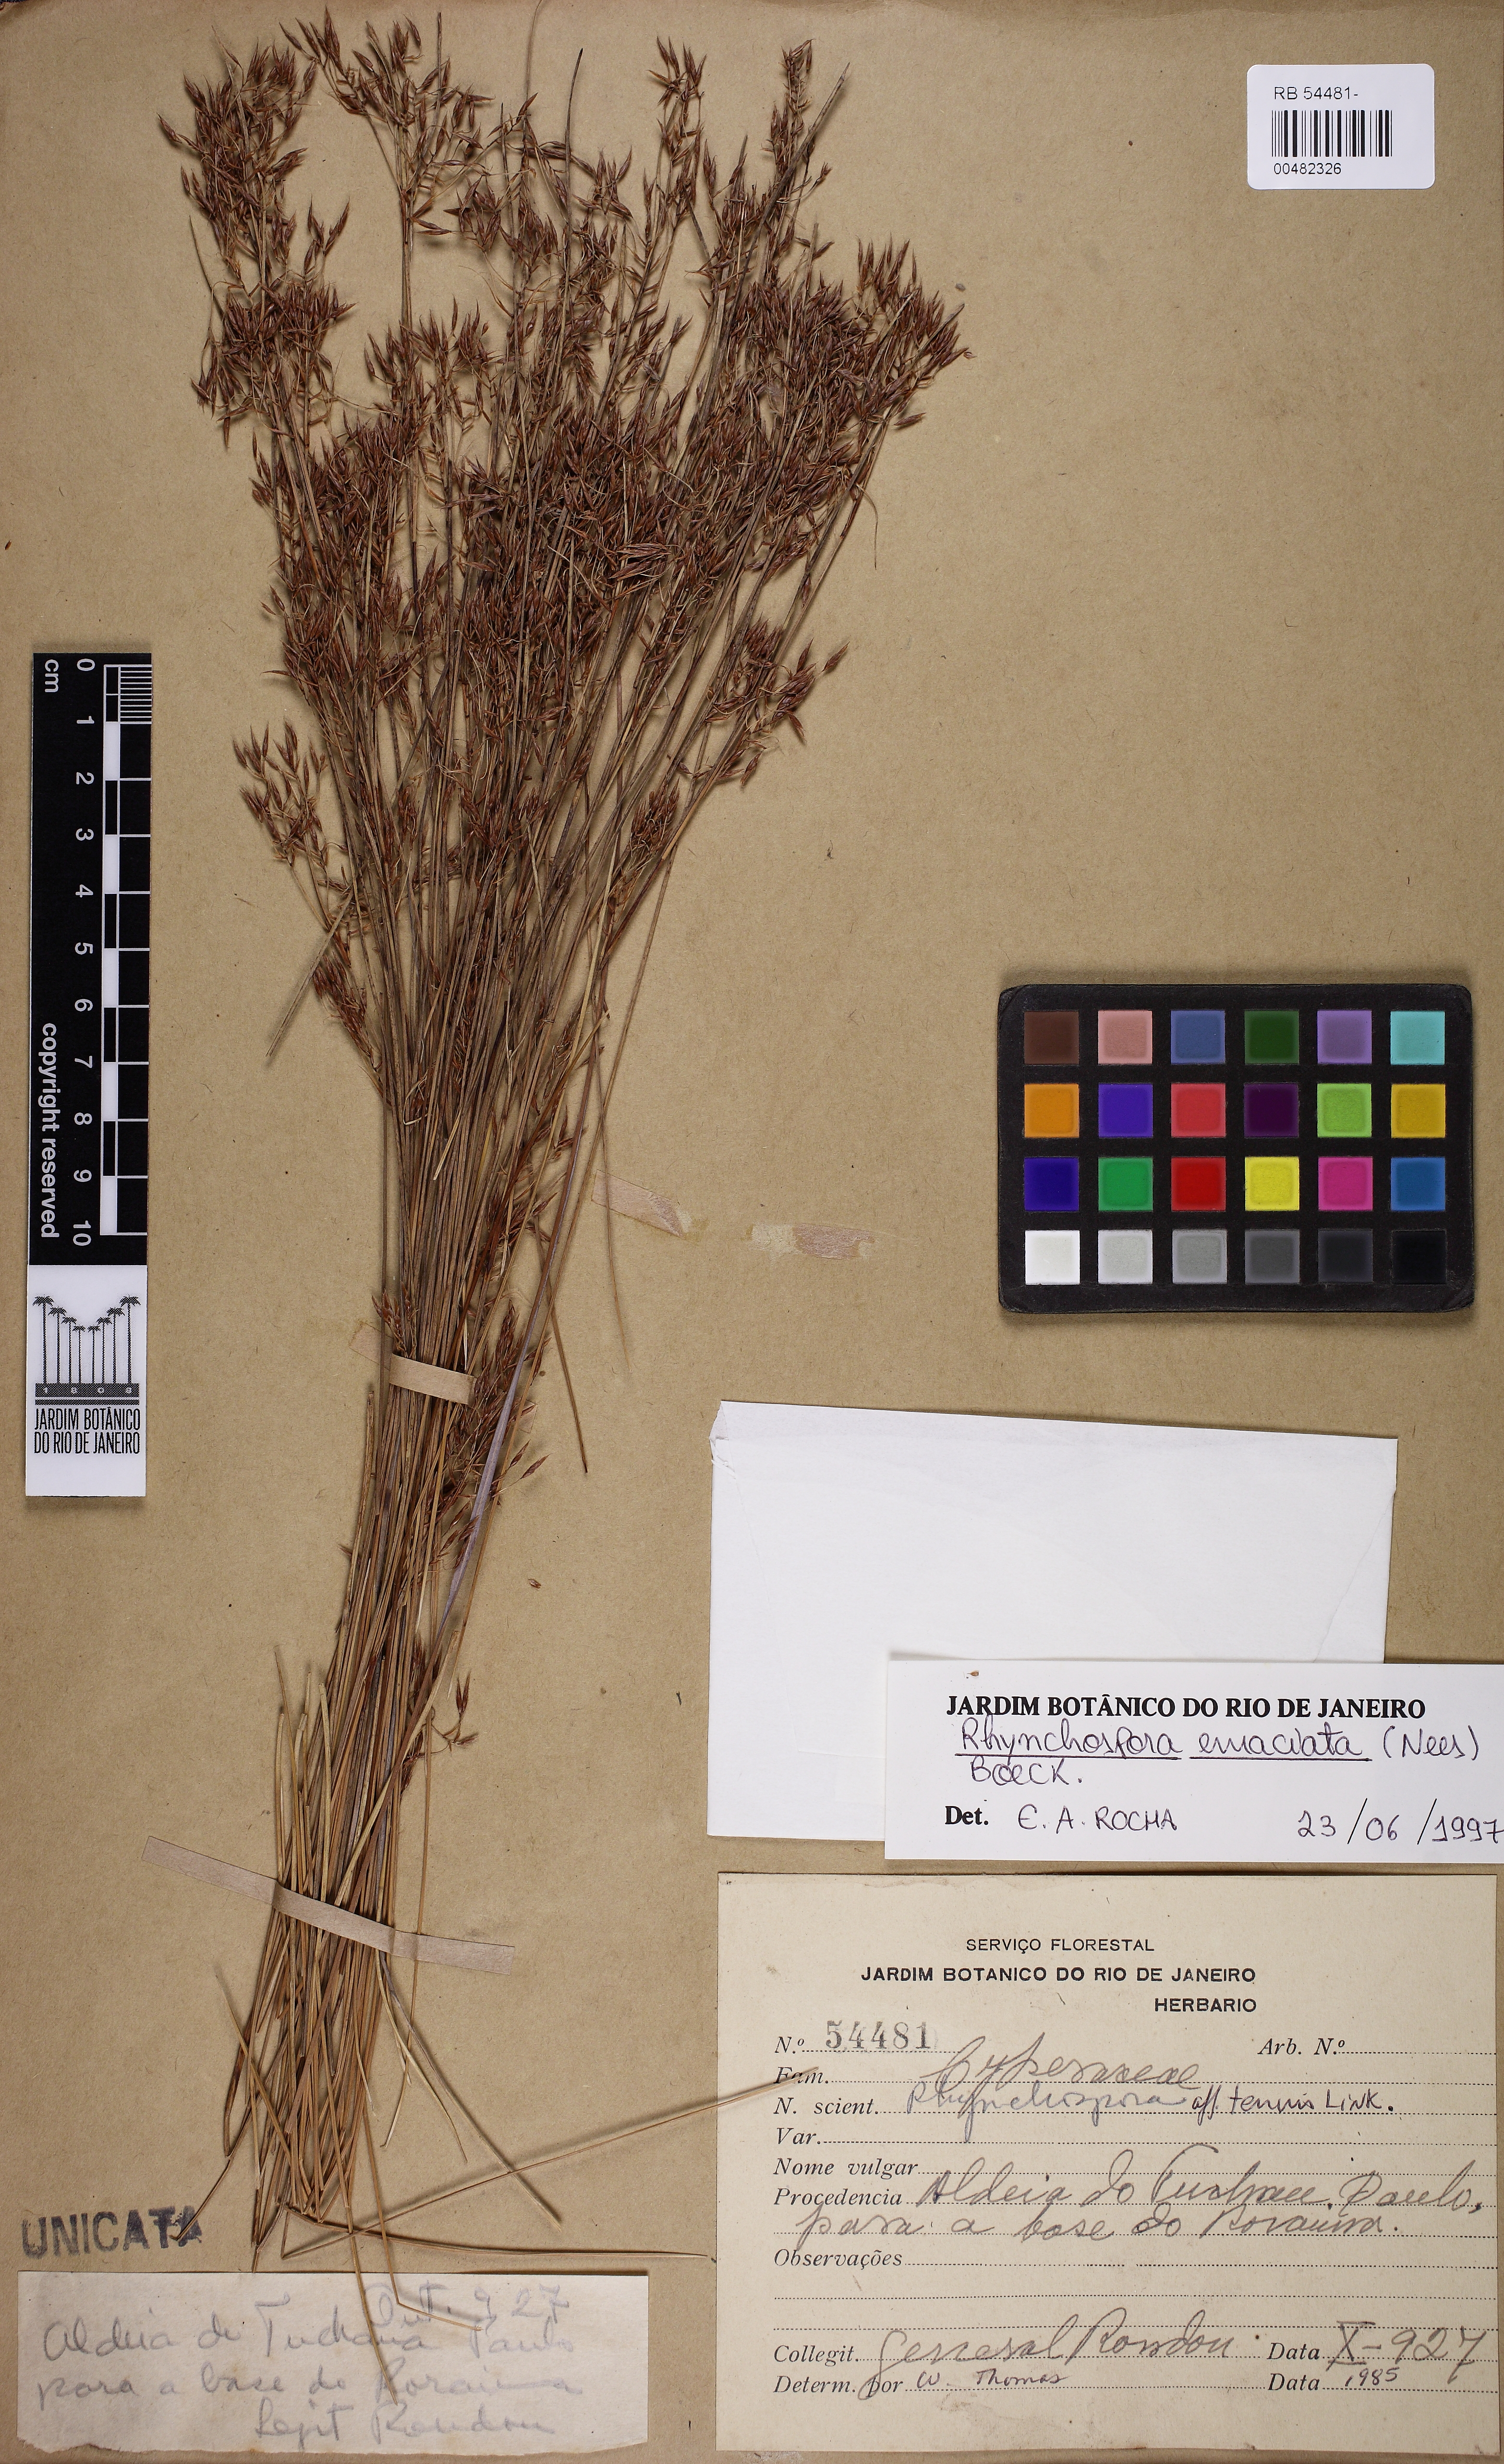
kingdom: Plantae
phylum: Tracheophyta
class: Liliopsida
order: Poales
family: Cyperaceae
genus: Rhynchospora
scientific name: Rhynchospora emaciata
